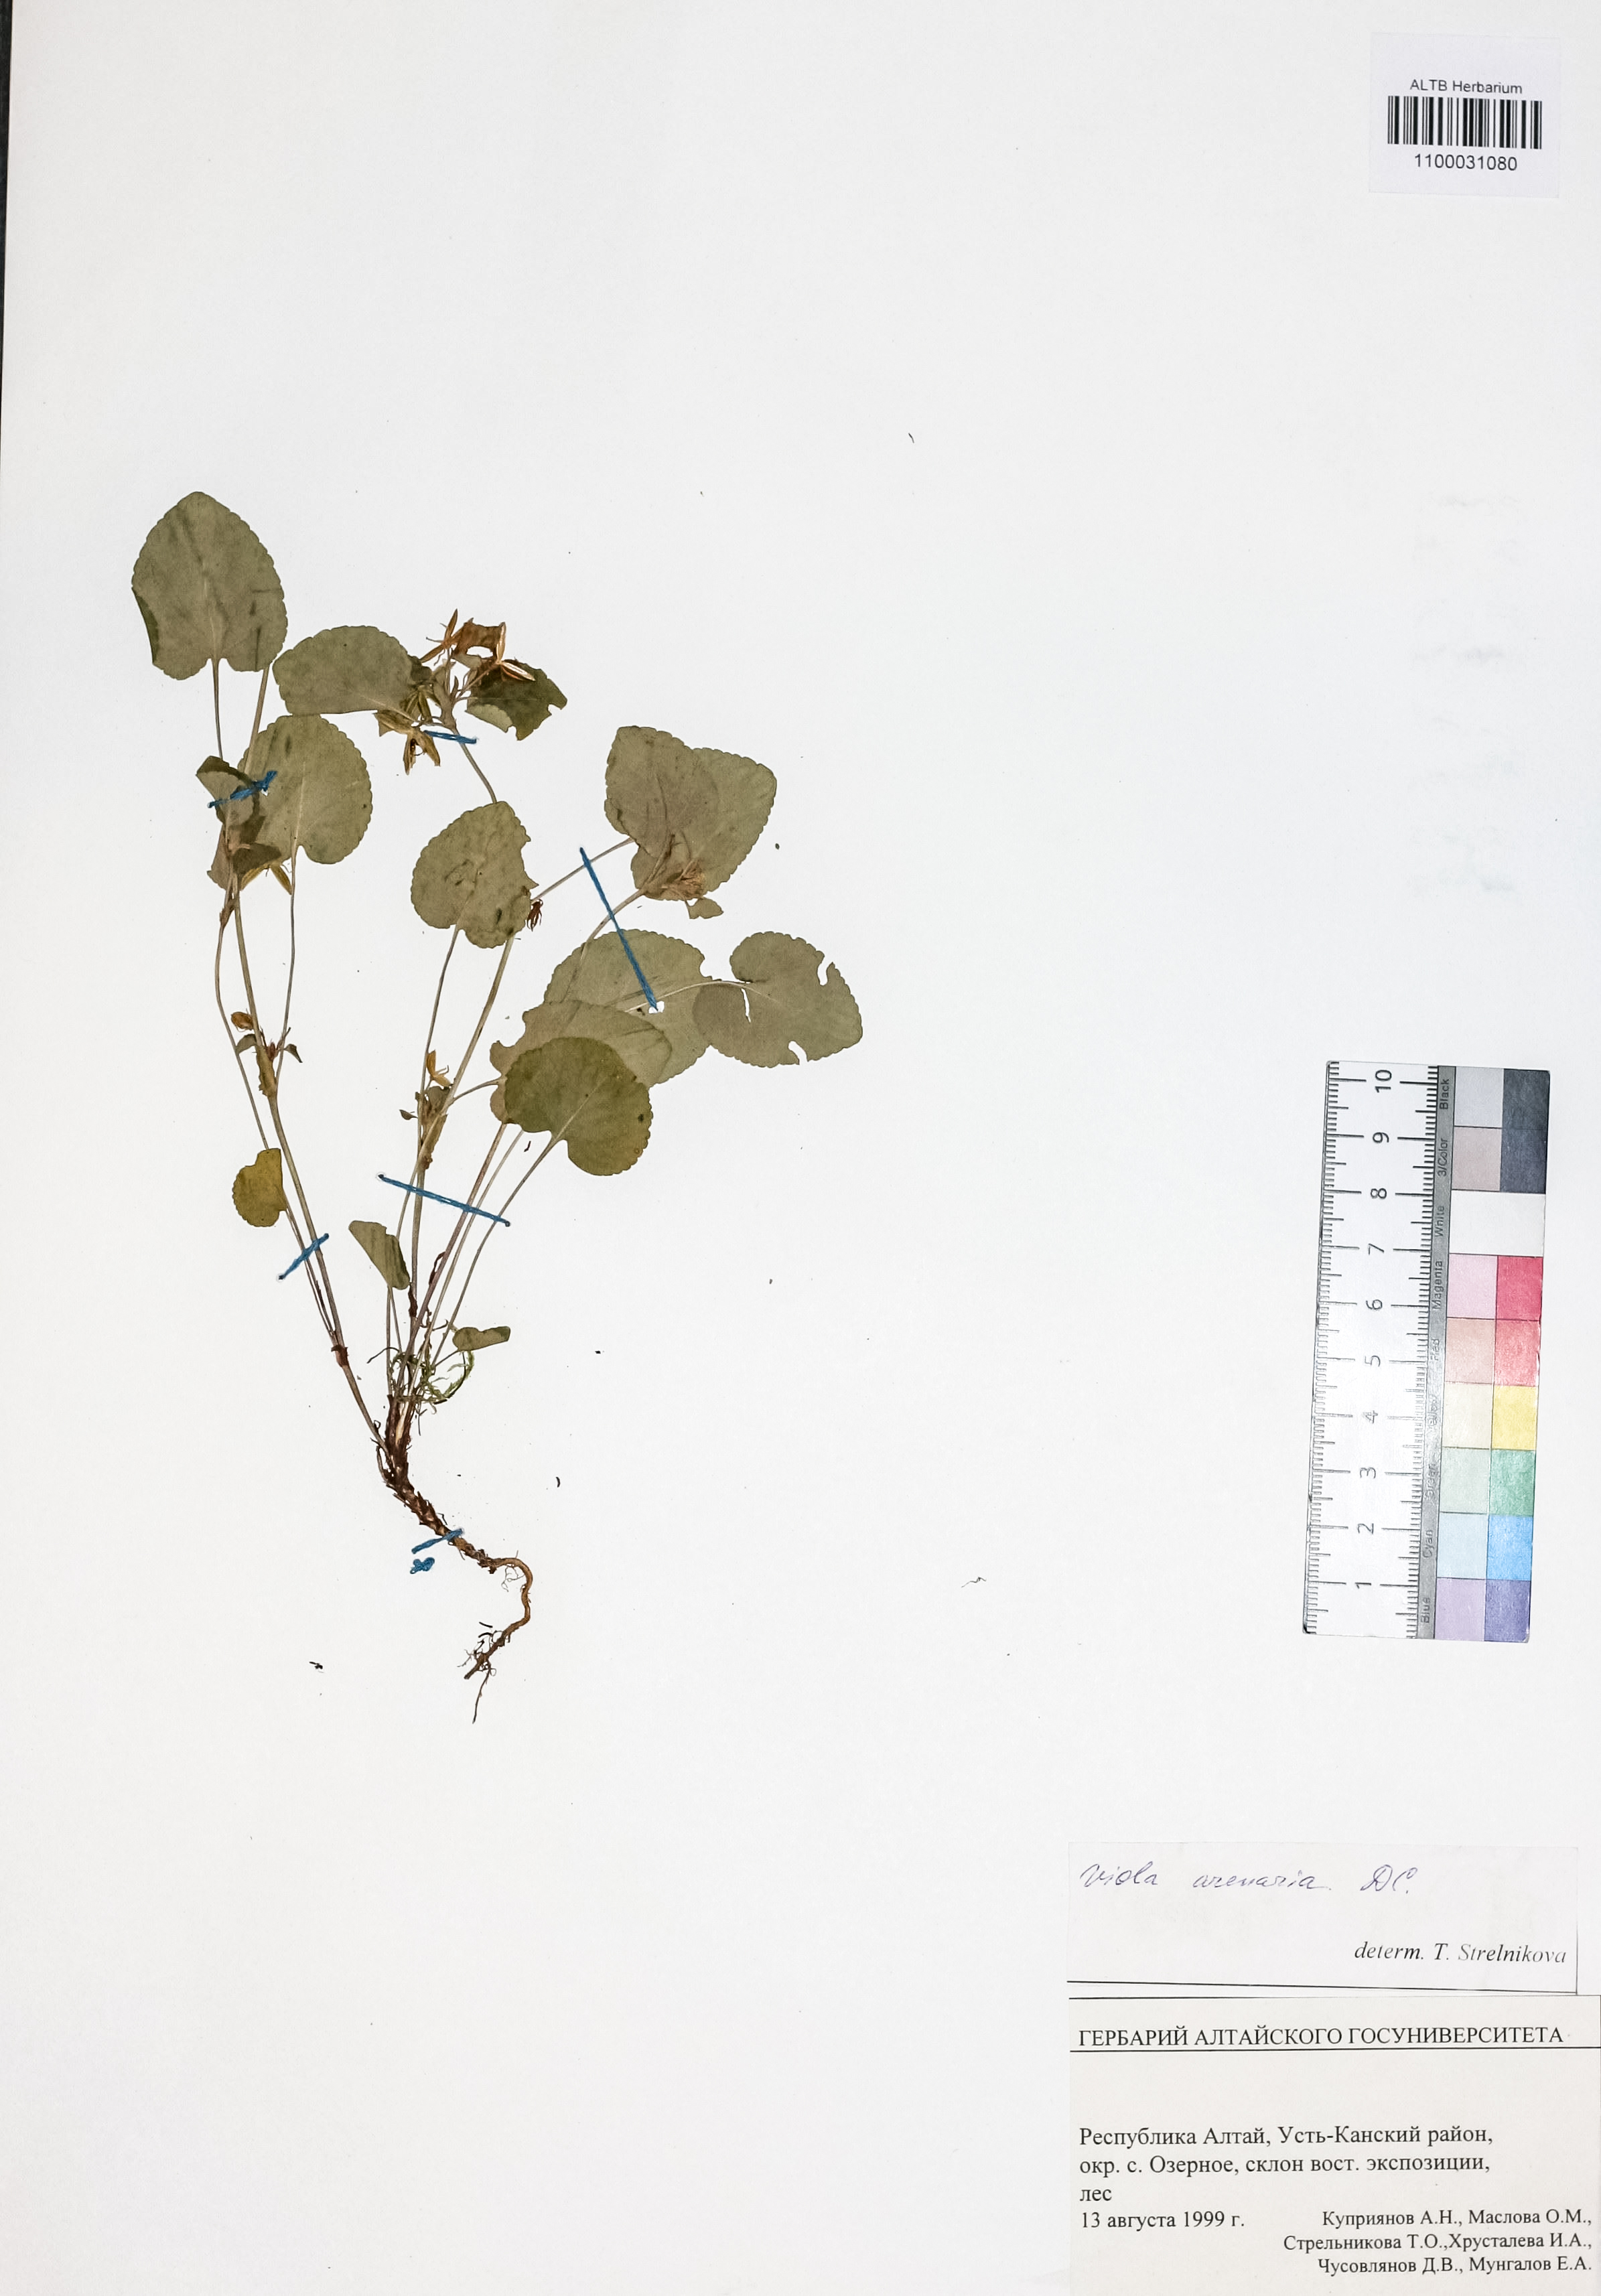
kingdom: Plantae
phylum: Tracheophyta
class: Magnoliopsida
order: Malpighiales
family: Violaceae
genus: Viola
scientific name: Viola rupestris
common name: Teesdale violet
